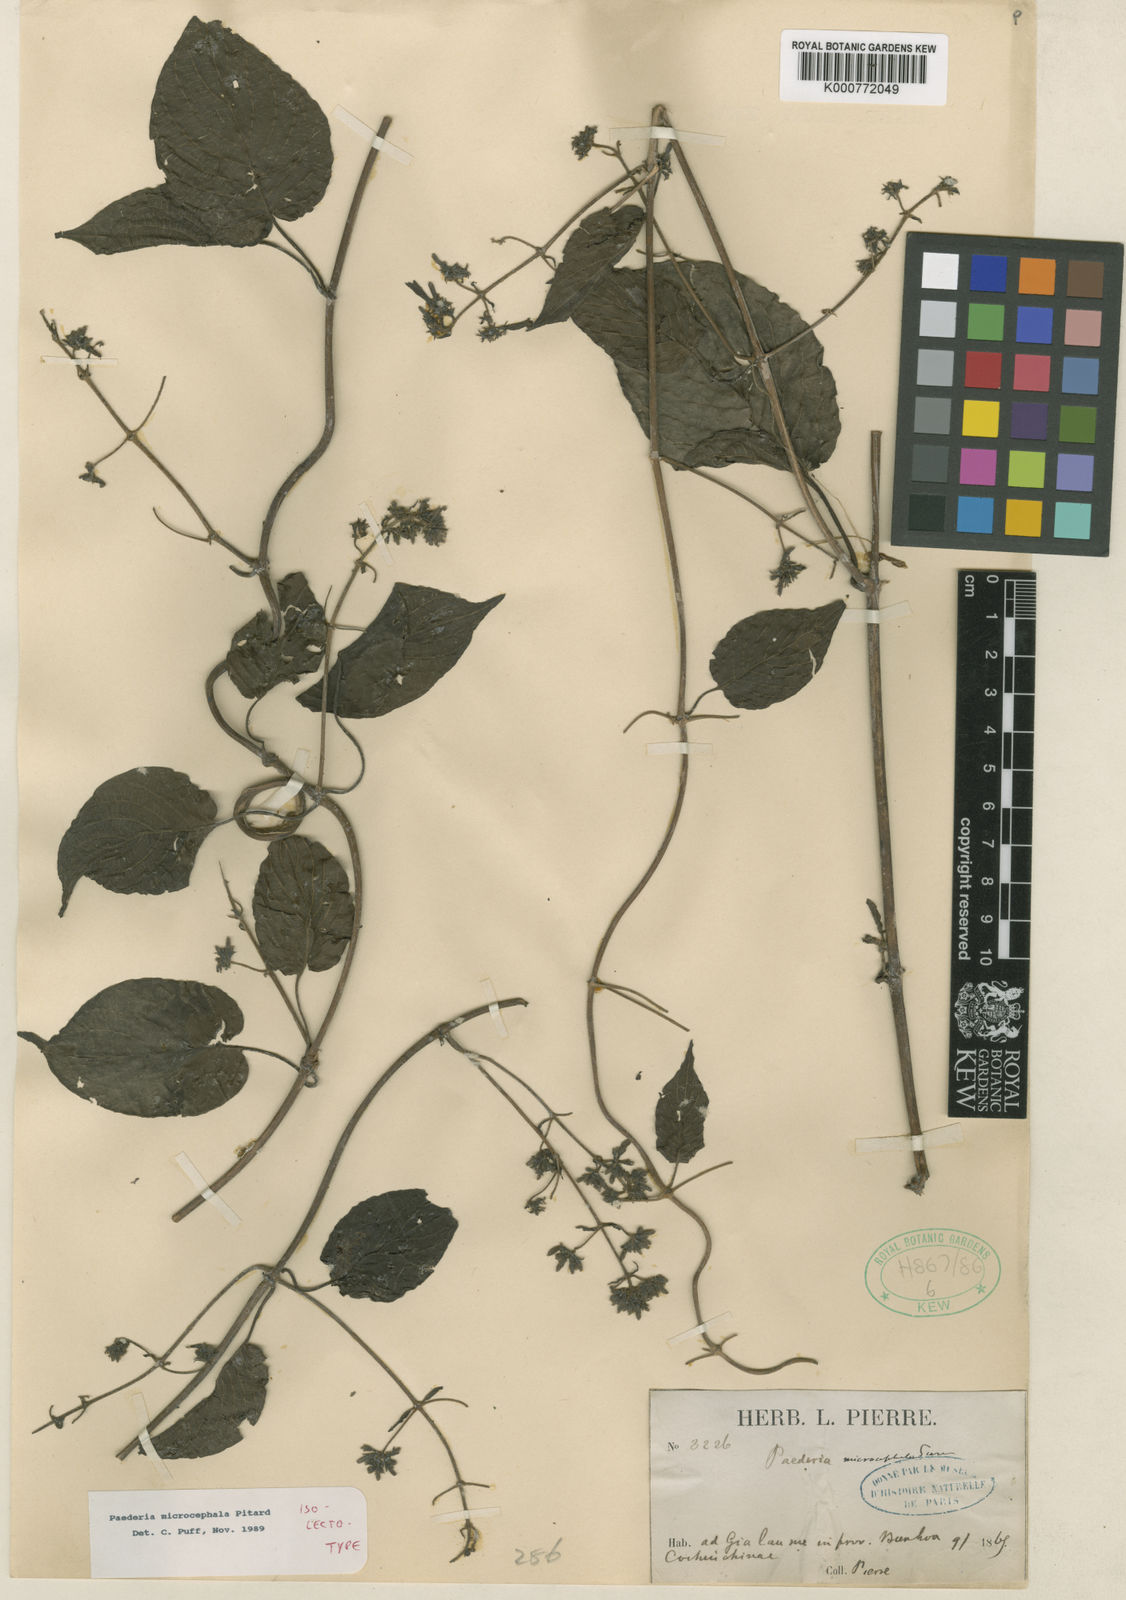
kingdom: Plantae
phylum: Tracheophyta
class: Magnoliopsida
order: Gentianales
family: Rubiaceae
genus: Paederia
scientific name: Paederia microcephala
